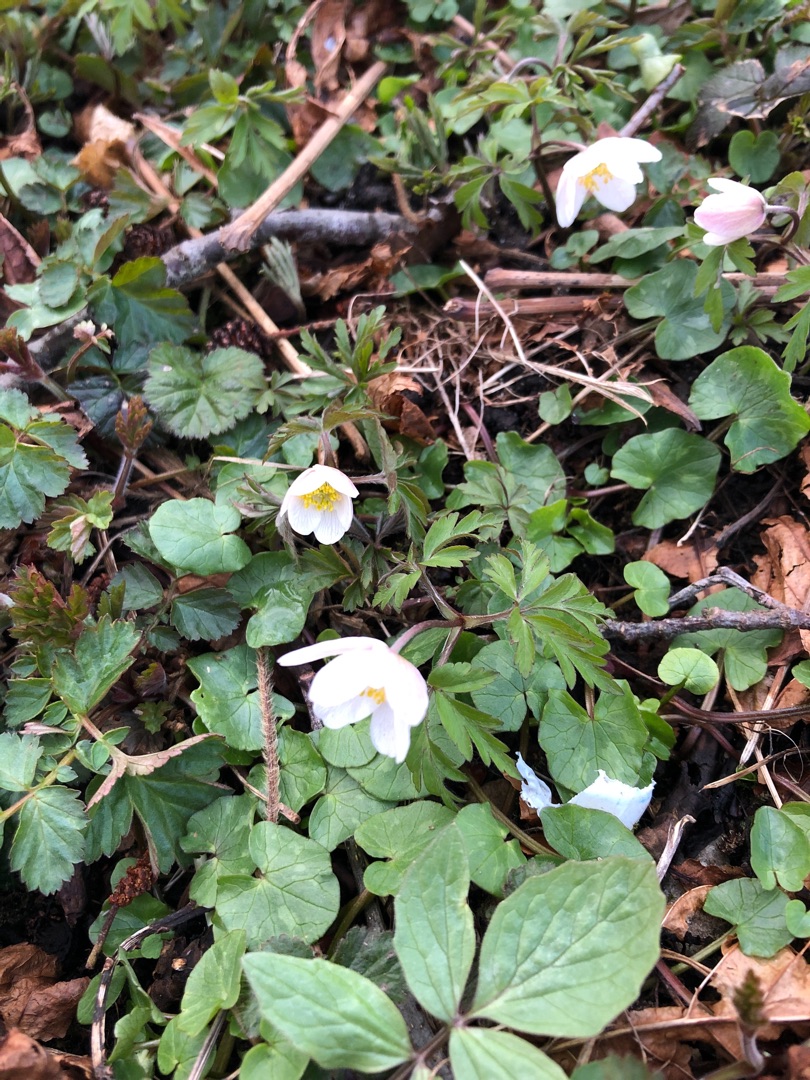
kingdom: Plantae
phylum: Tracheophyta
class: Magnoliopsida
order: Ranunculales
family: Ranunculaceae
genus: Anemone
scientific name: Anemone nemorosa
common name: Hvid anemone
